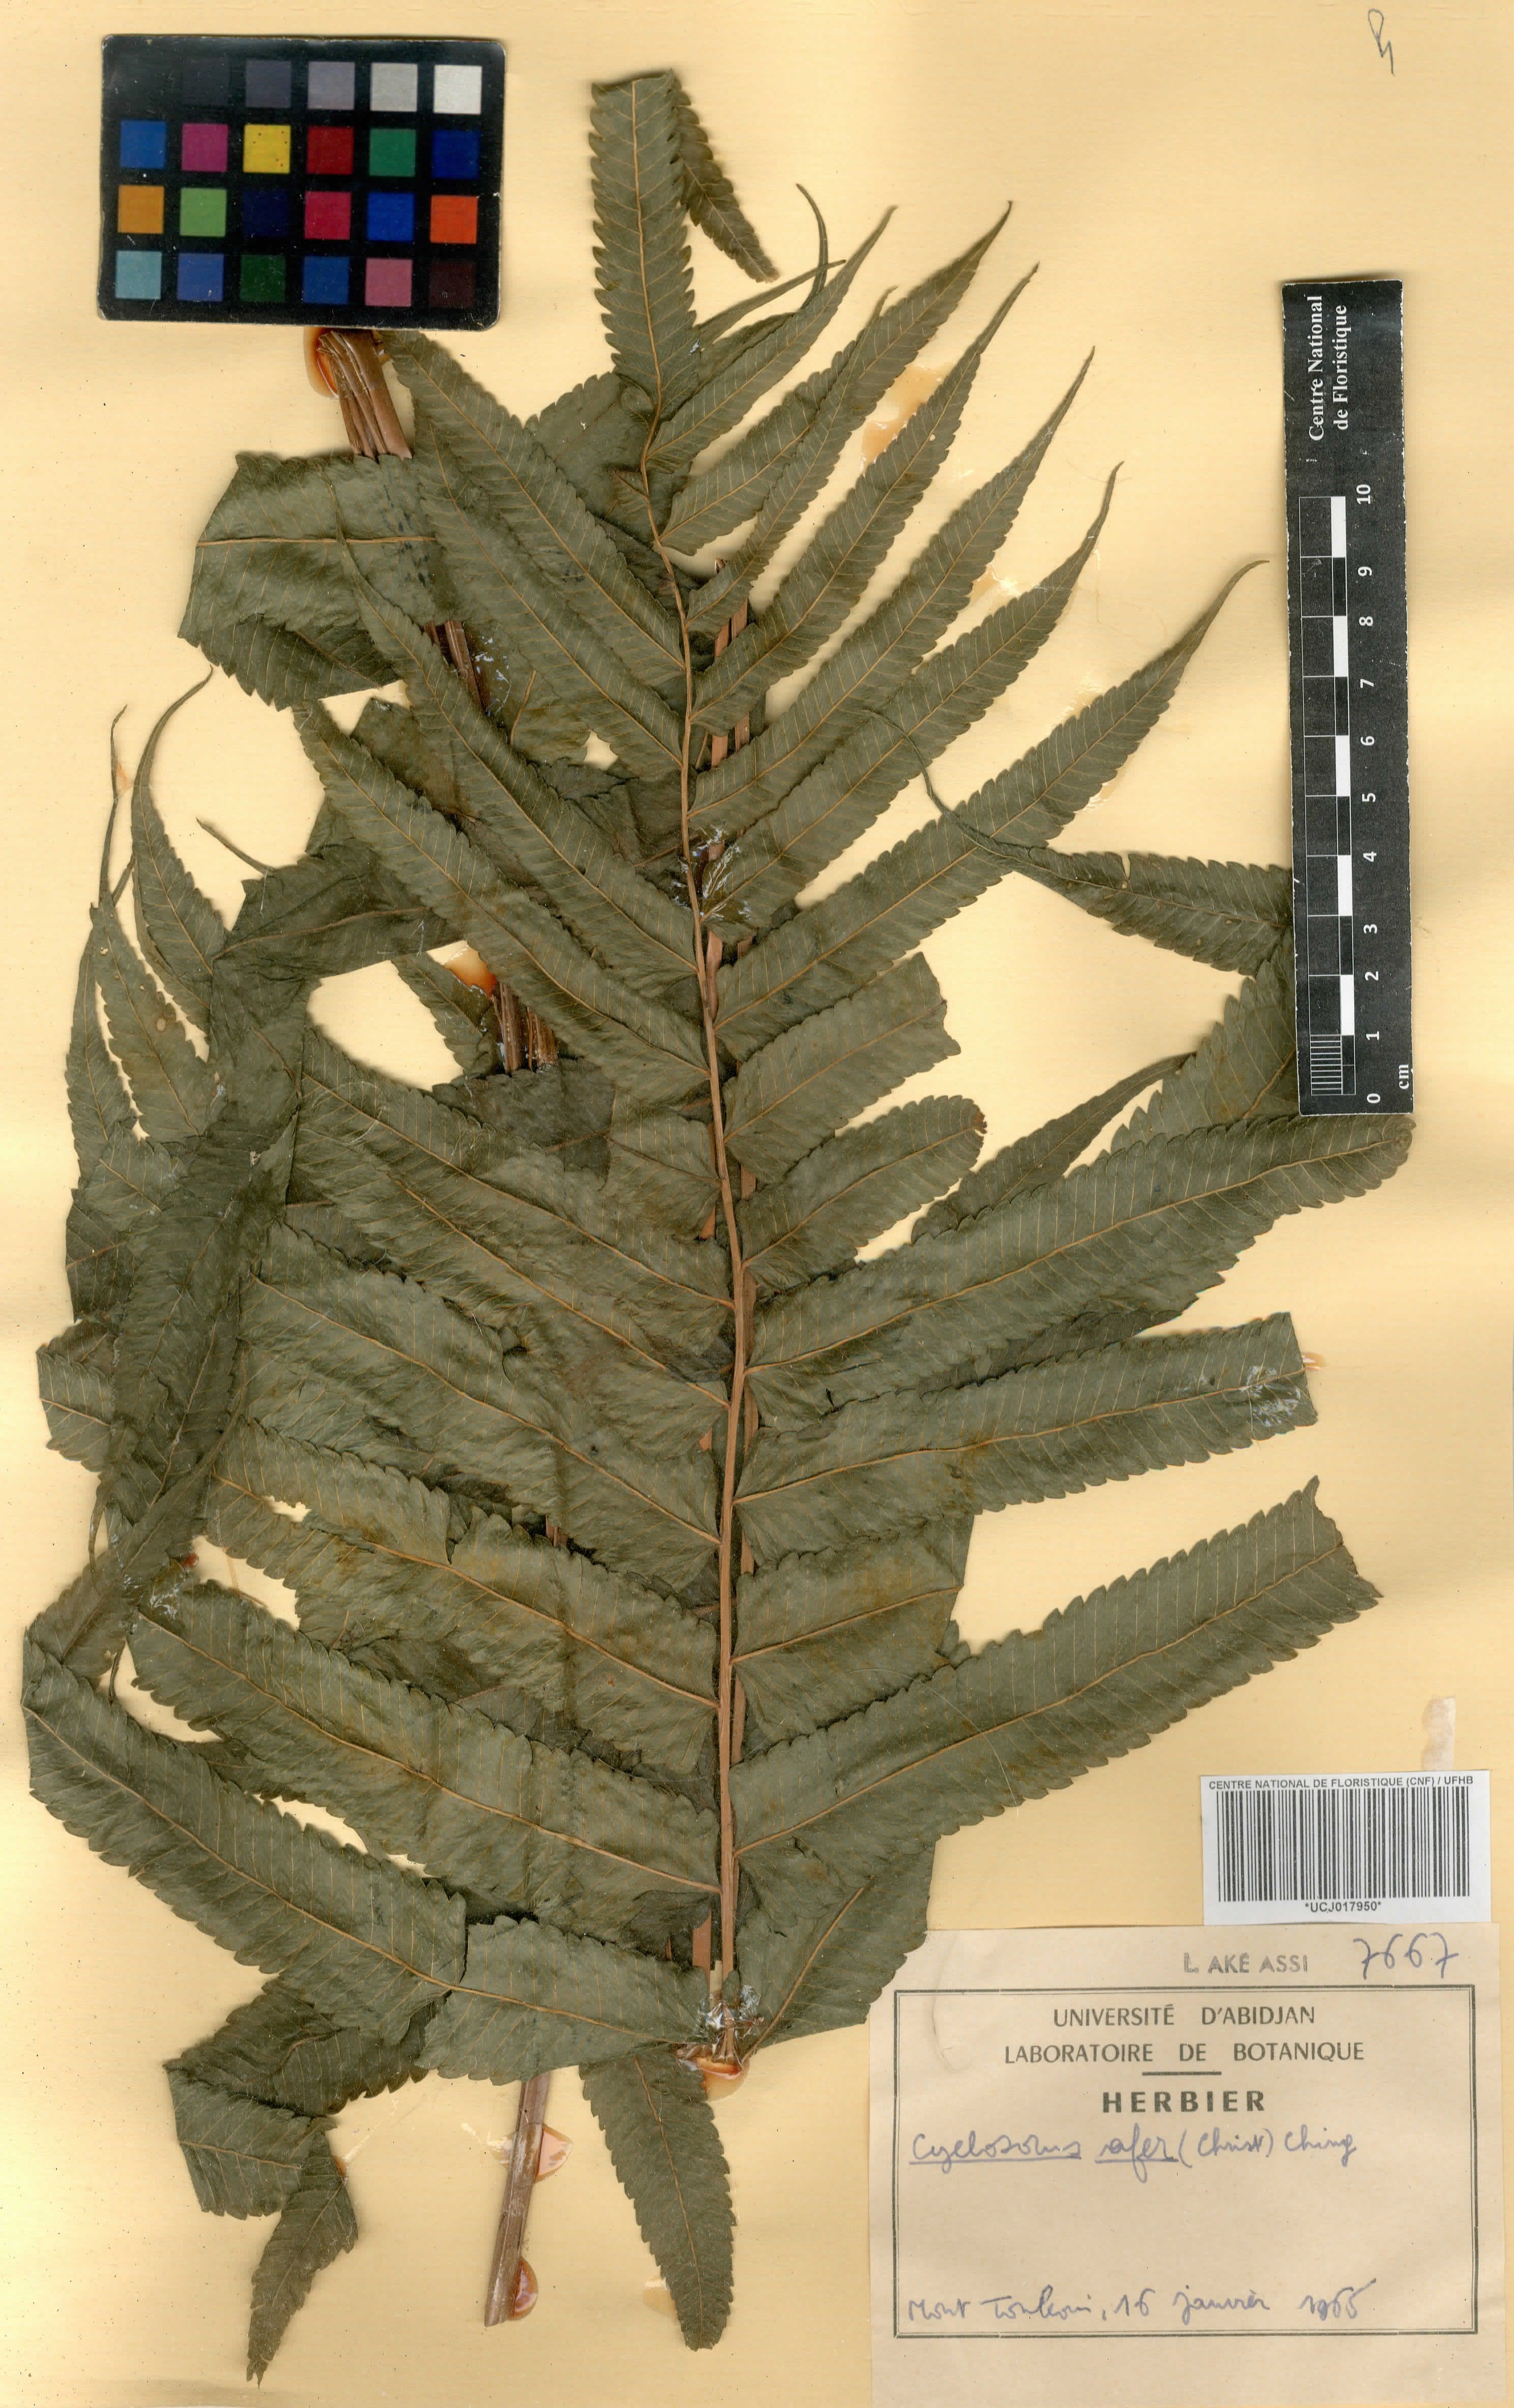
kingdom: Plantae
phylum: Tracheophyta
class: Polypodiopsida
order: Polypodiales
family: Thelypteridaceae
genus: Abacopteris
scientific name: Abacopteris afra
